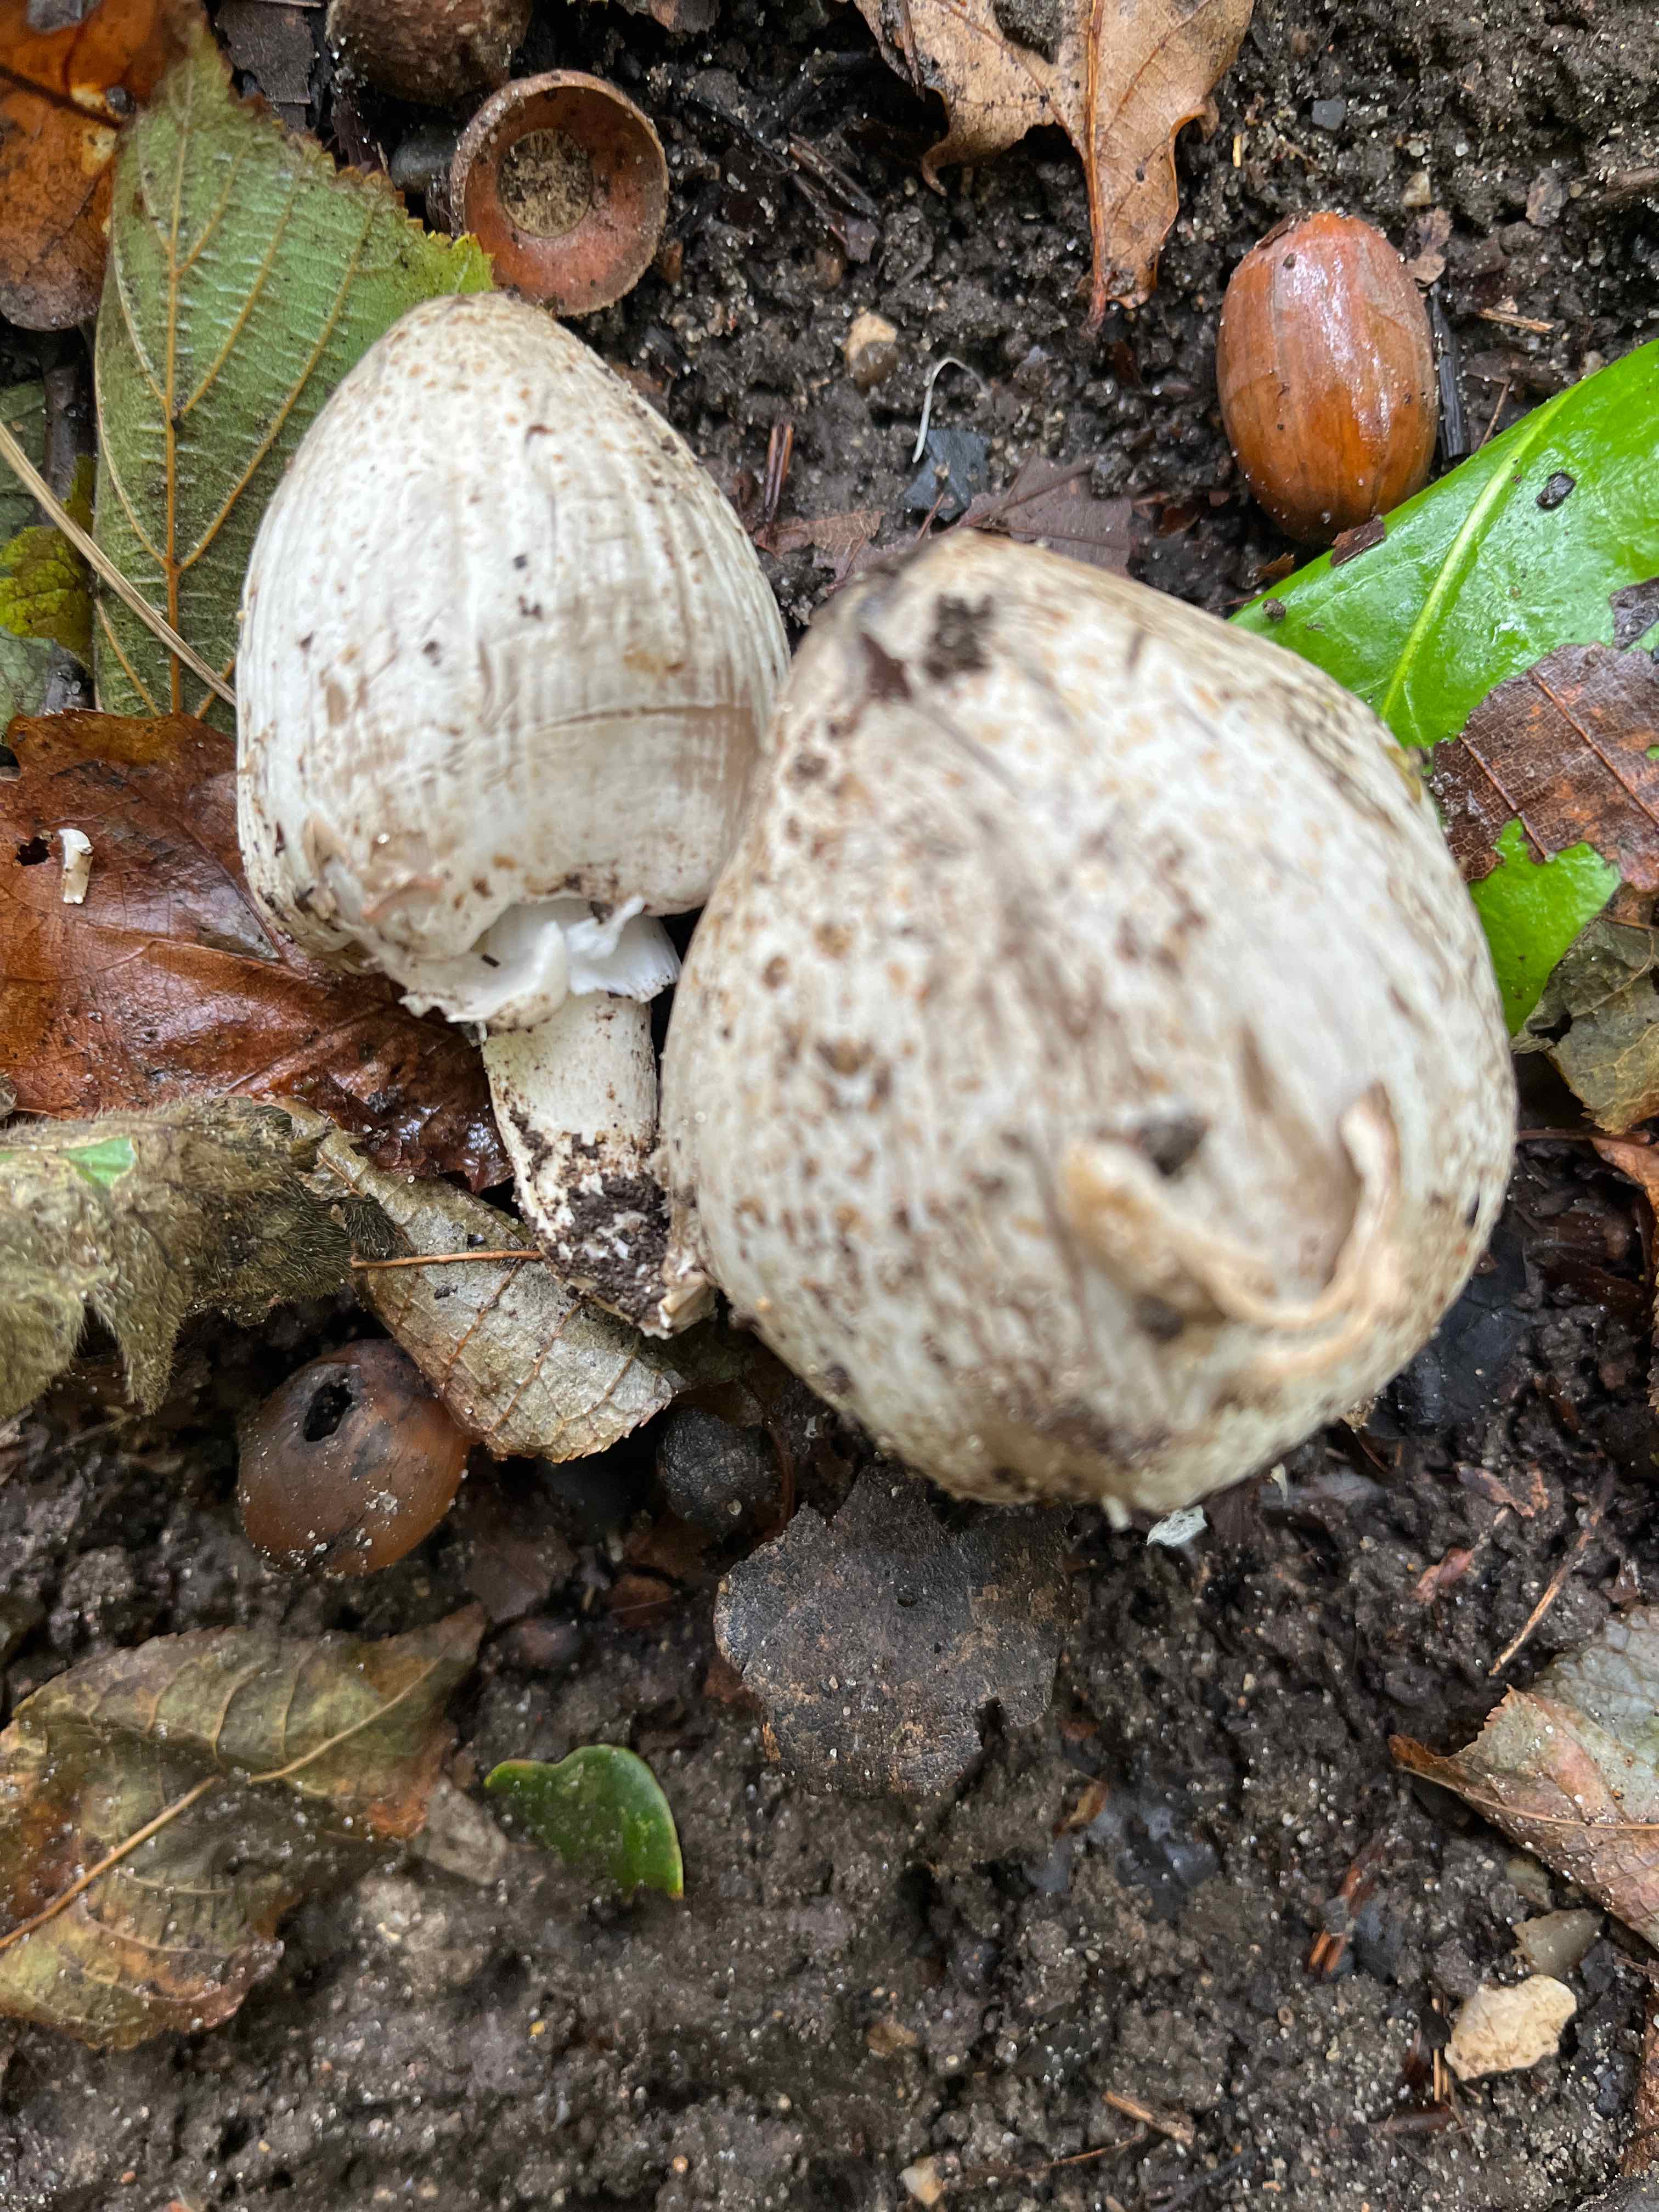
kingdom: Fungi
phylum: Basidiomycota
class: Agaricomycetes
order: Agaricales
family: Psathyrellaceae
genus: Coprinopsis
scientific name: Coprinopsis romagnesiana
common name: brunskællet blækhat
